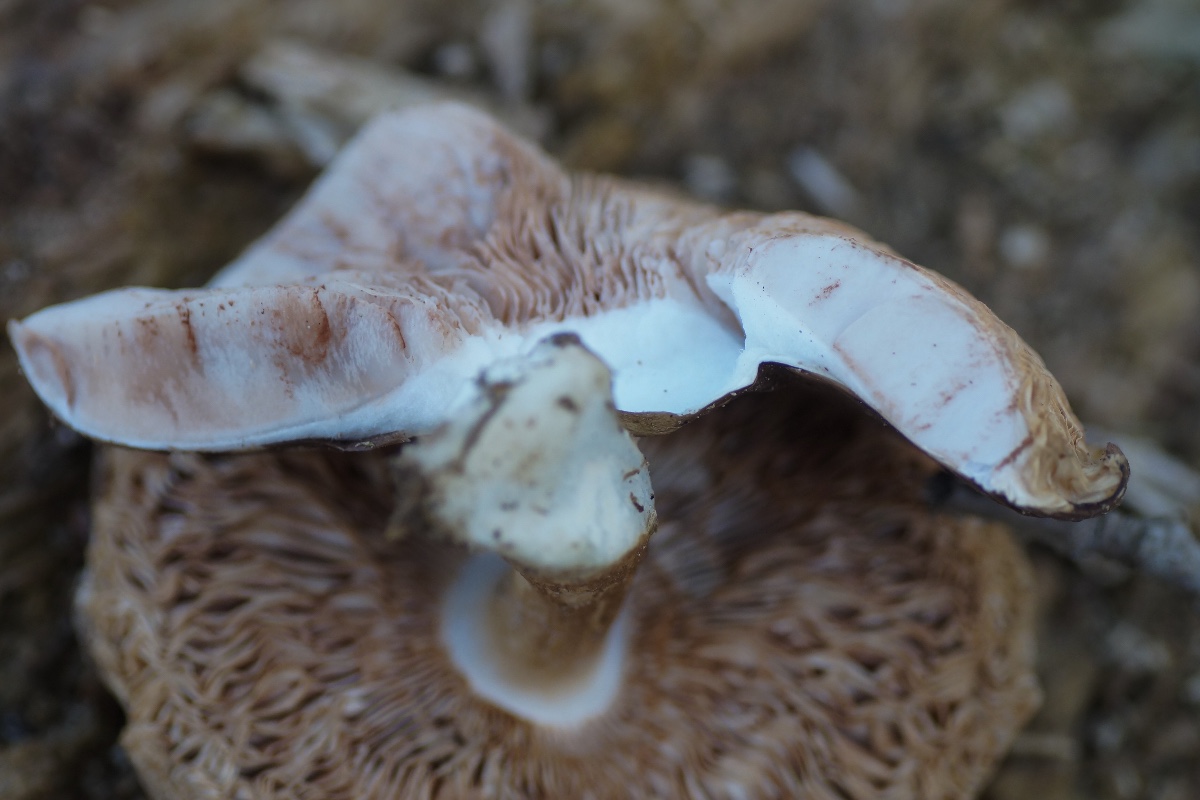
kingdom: Fungi
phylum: Basidiomycota
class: Agaricomycetes
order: Agaricales
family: Pluteaceae
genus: Pluteus
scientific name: Pluteus cervinus
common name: sodfarvet skærmhat
